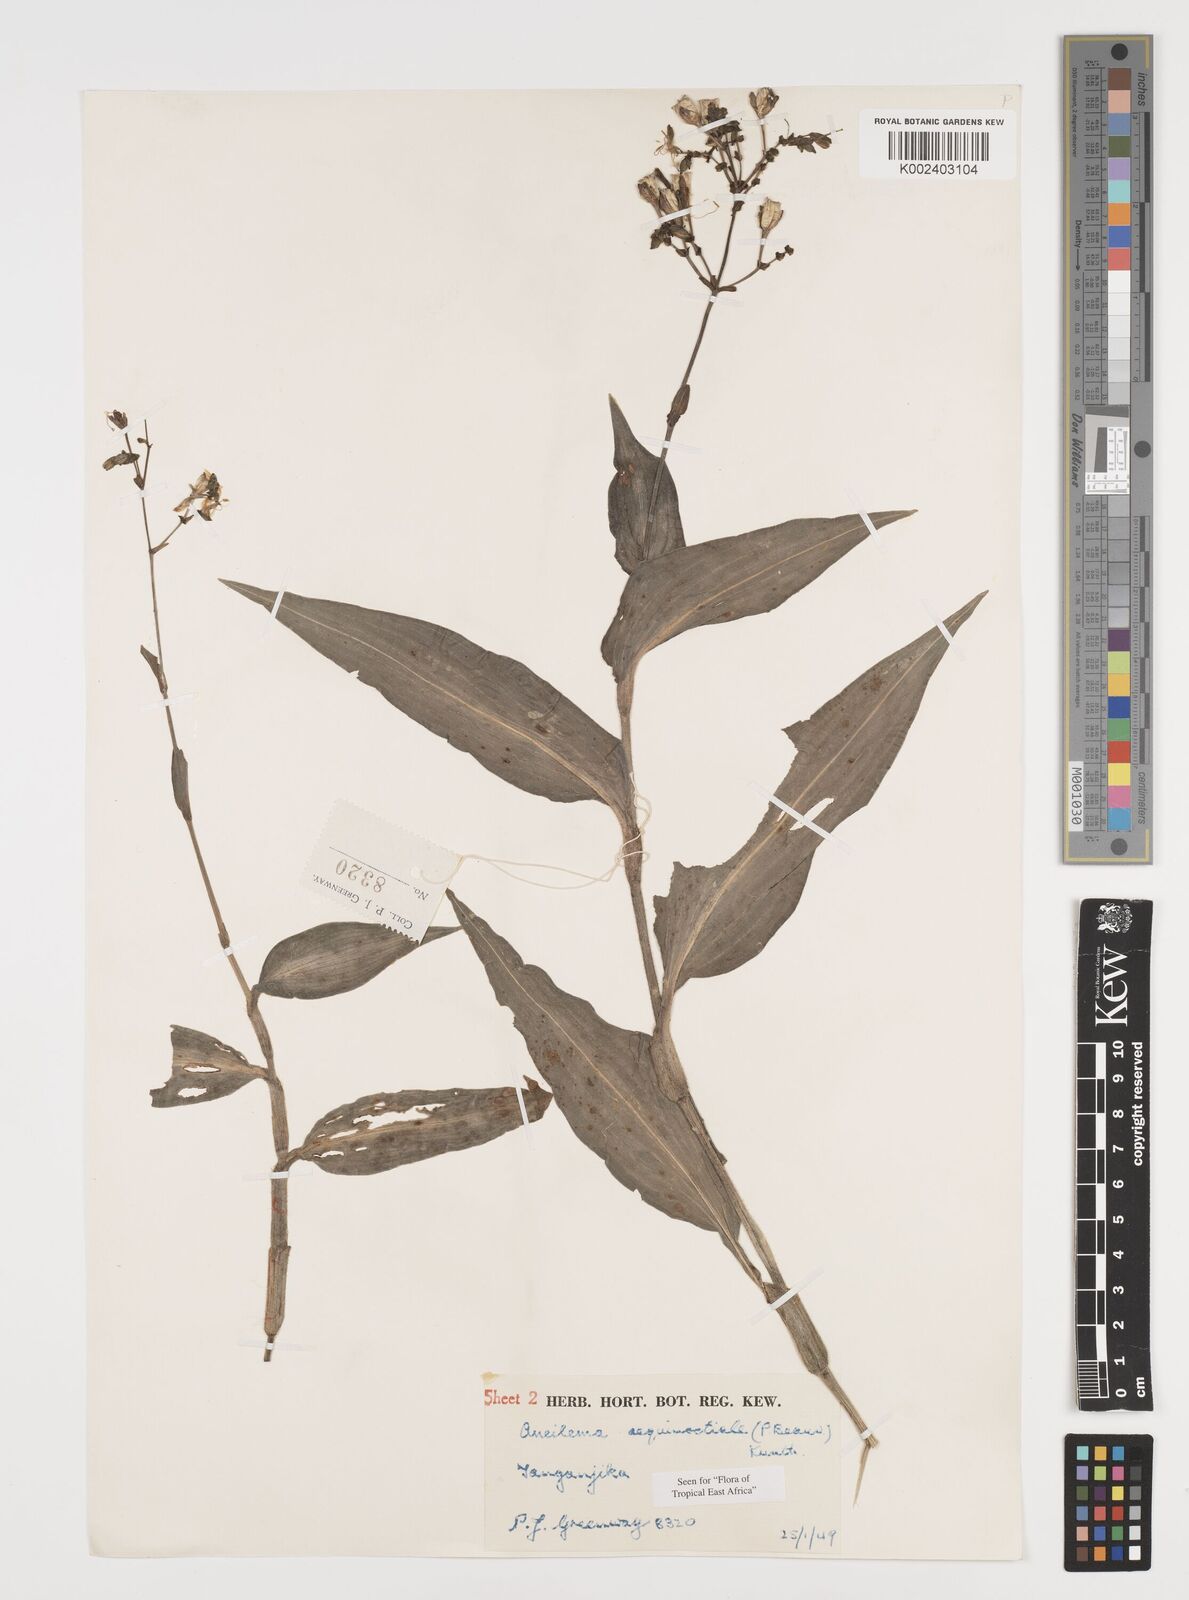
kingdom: Plantae
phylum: Tracheophyta
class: Liliopsida
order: Commelinales
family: Commelinaceae
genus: Aneilema
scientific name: Aneilema aequinoctiale
